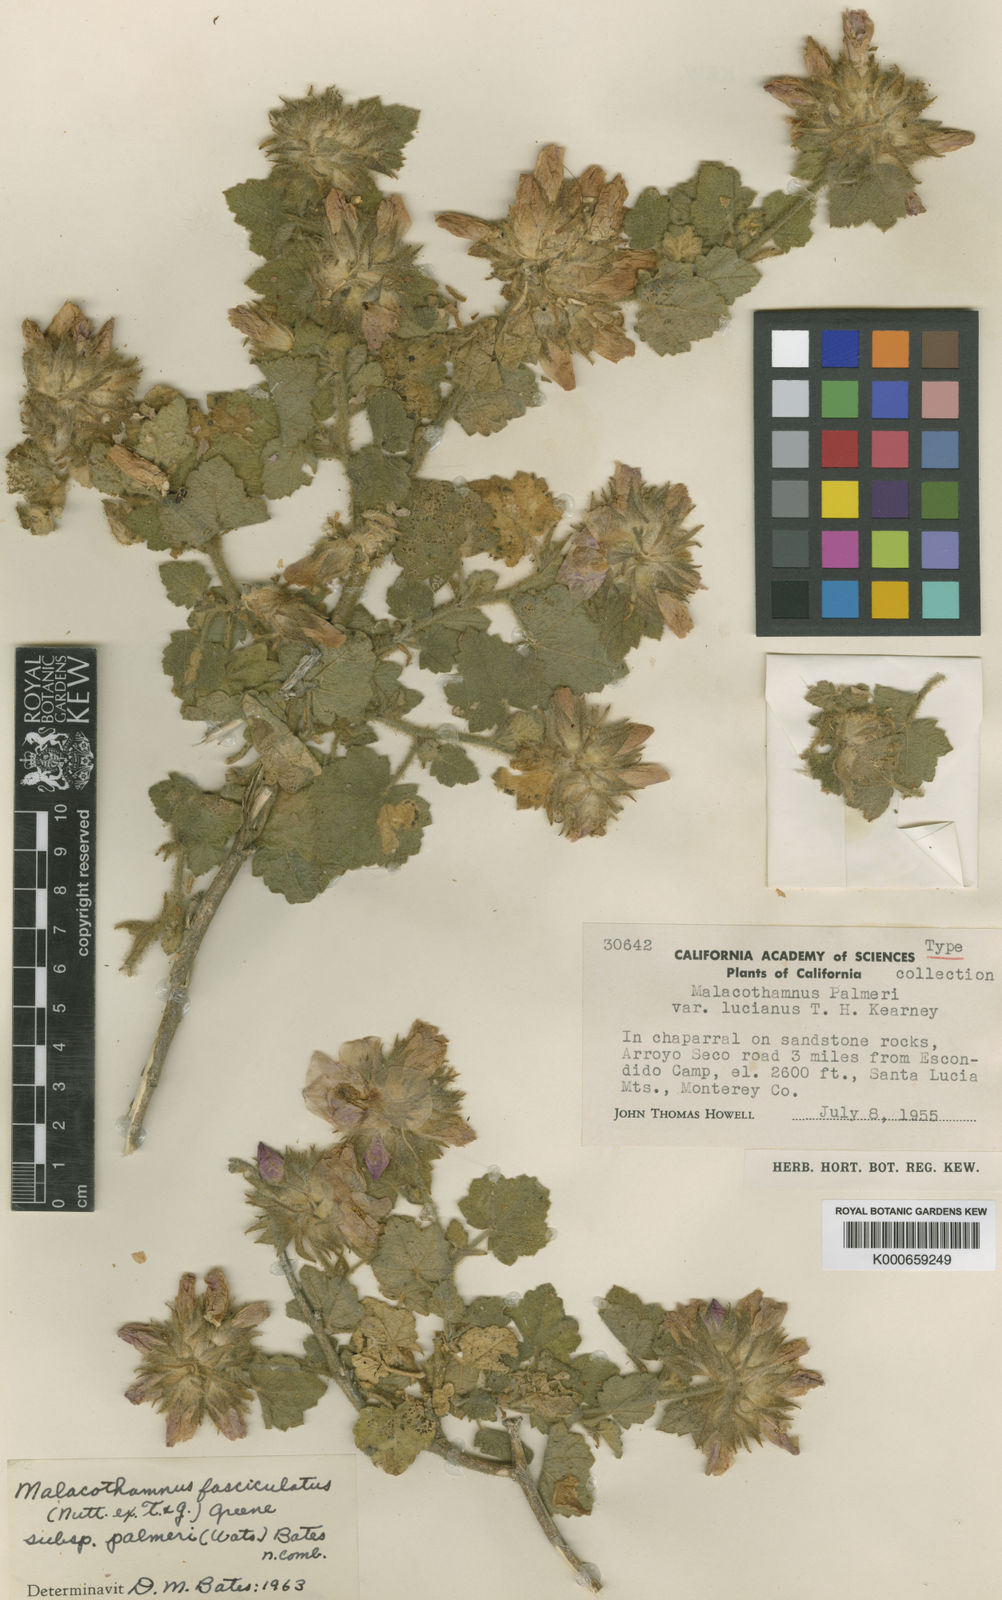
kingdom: Plantae
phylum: Tracheophyta
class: Magnoliopsida
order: Malvales
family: Malvaceae
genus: Malacothamnus
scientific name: Malacothamnus fasciculatus
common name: Sant cruz island bush-mallow
